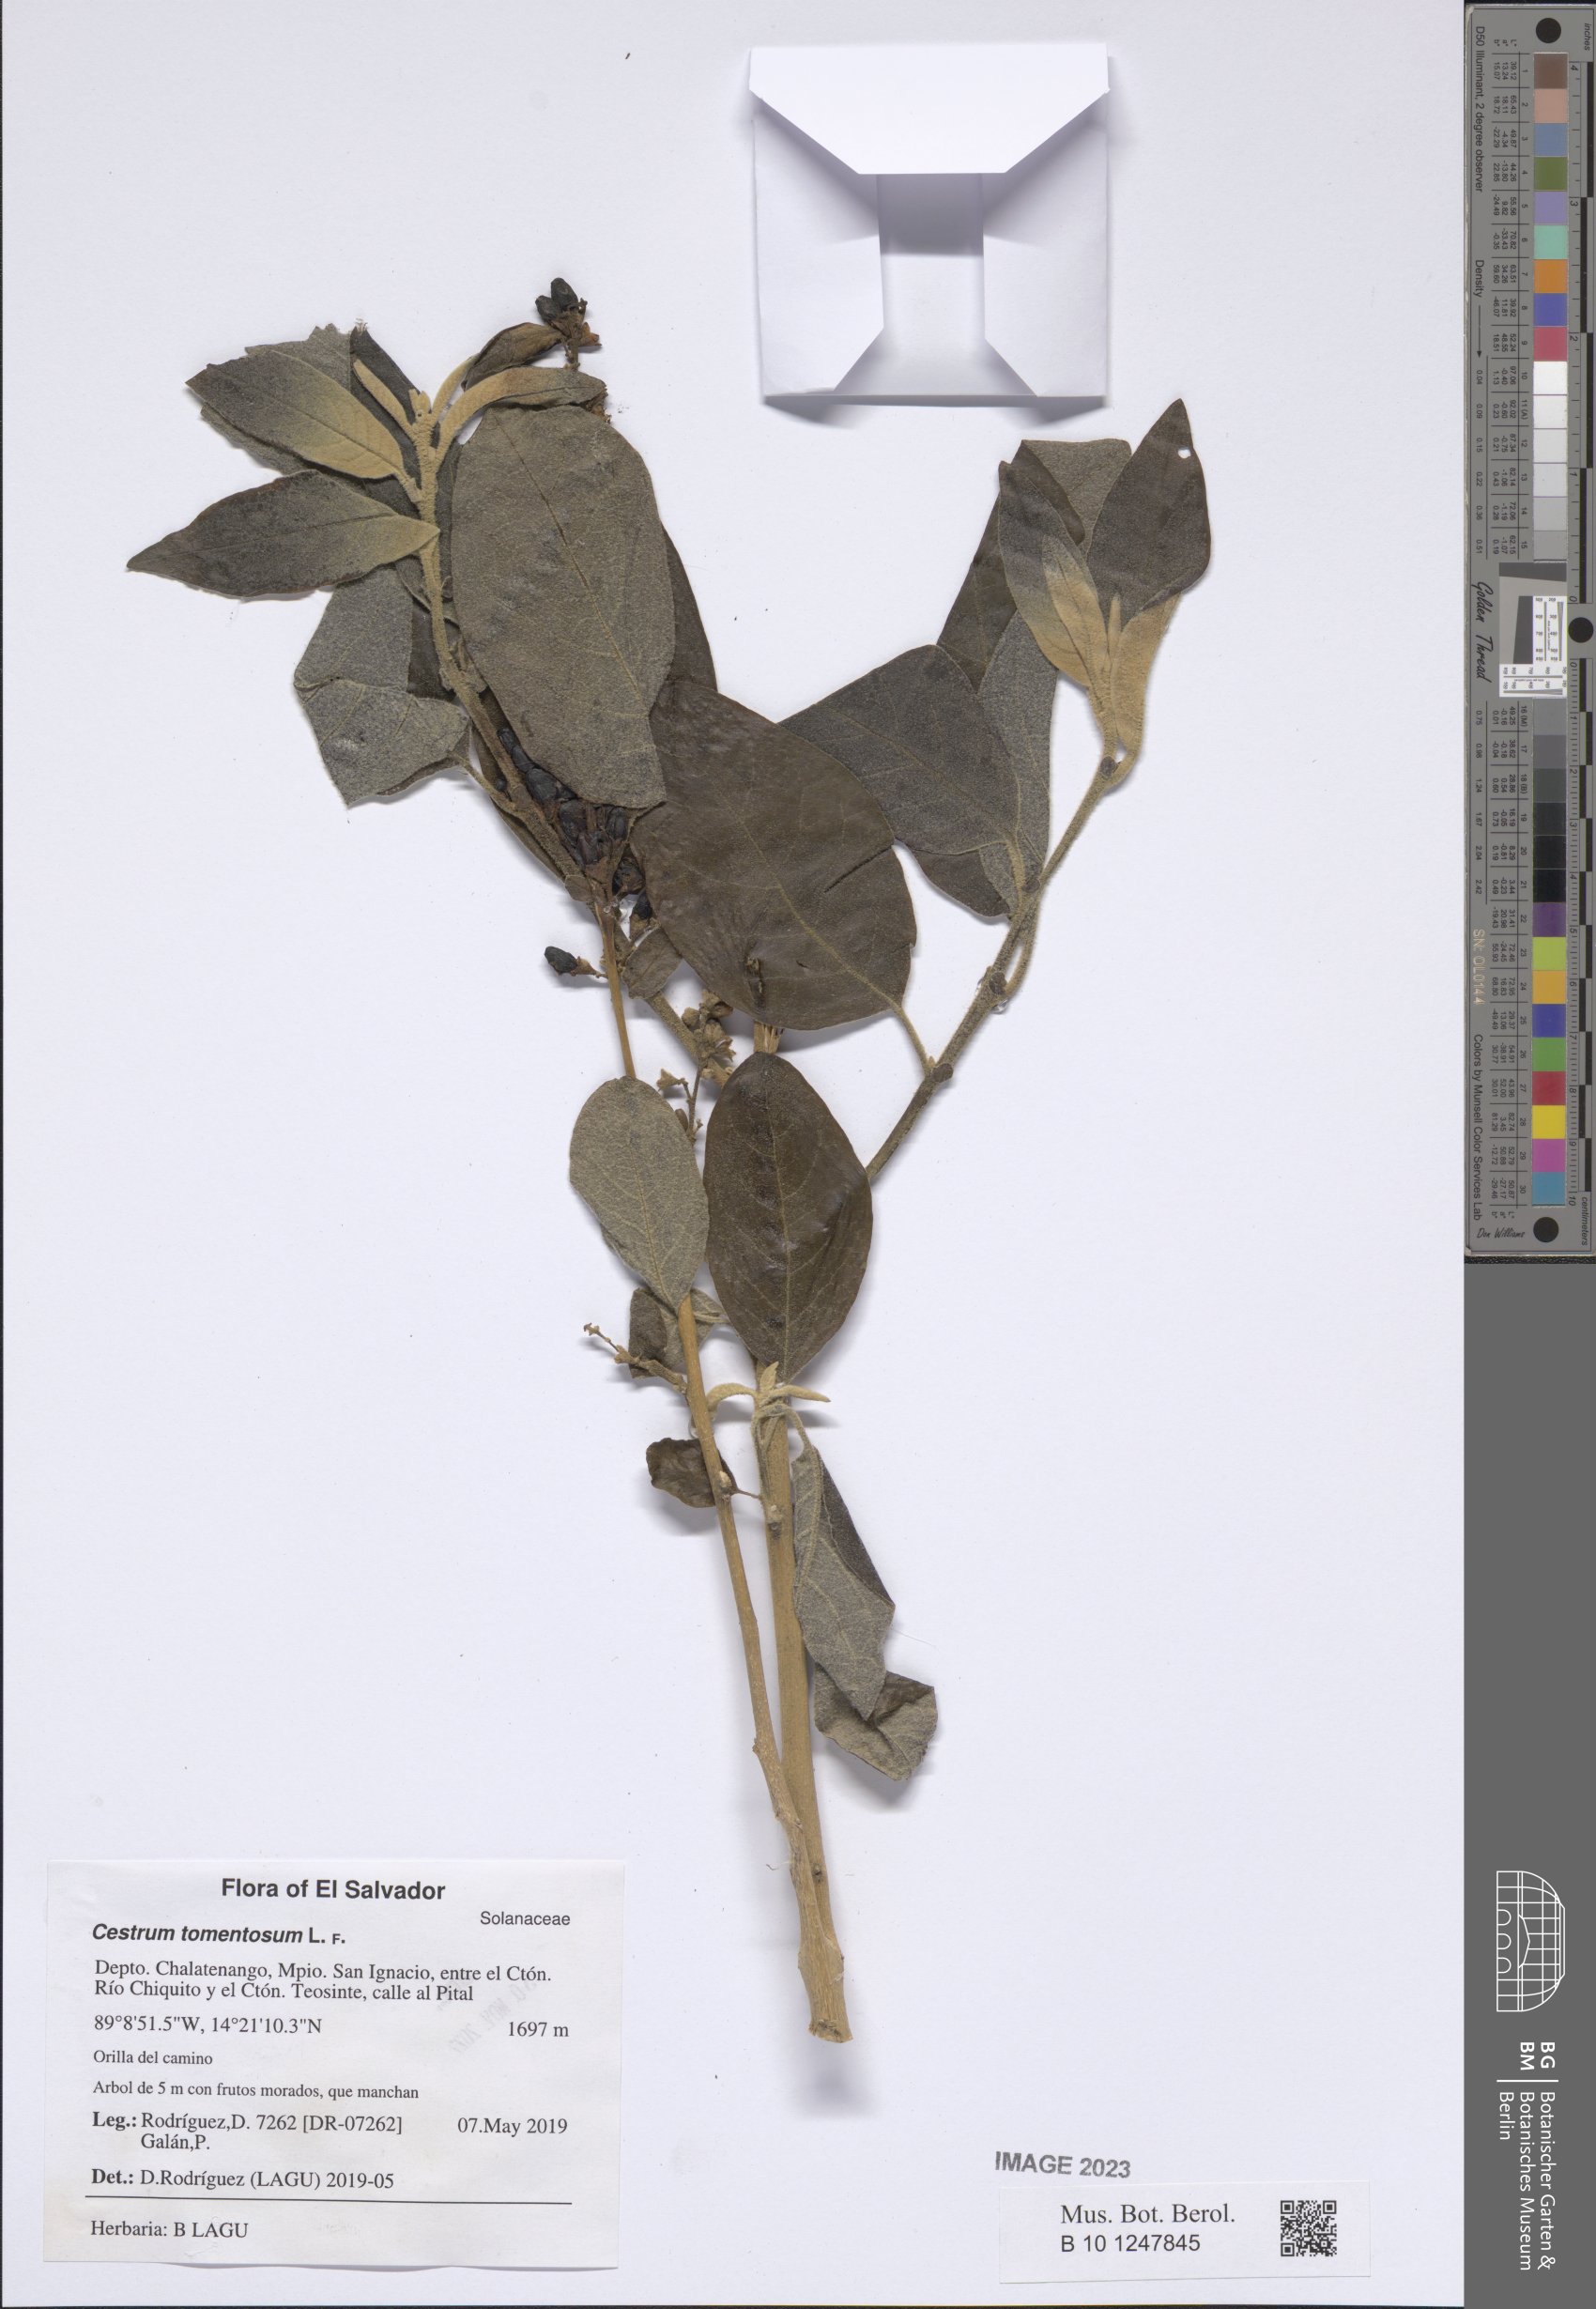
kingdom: Plantae
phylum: Tracheophyta
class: Magnoliopsida
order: Solanales
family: Solanaceae
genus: Cestrum
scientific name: Cestrum tomentosum
